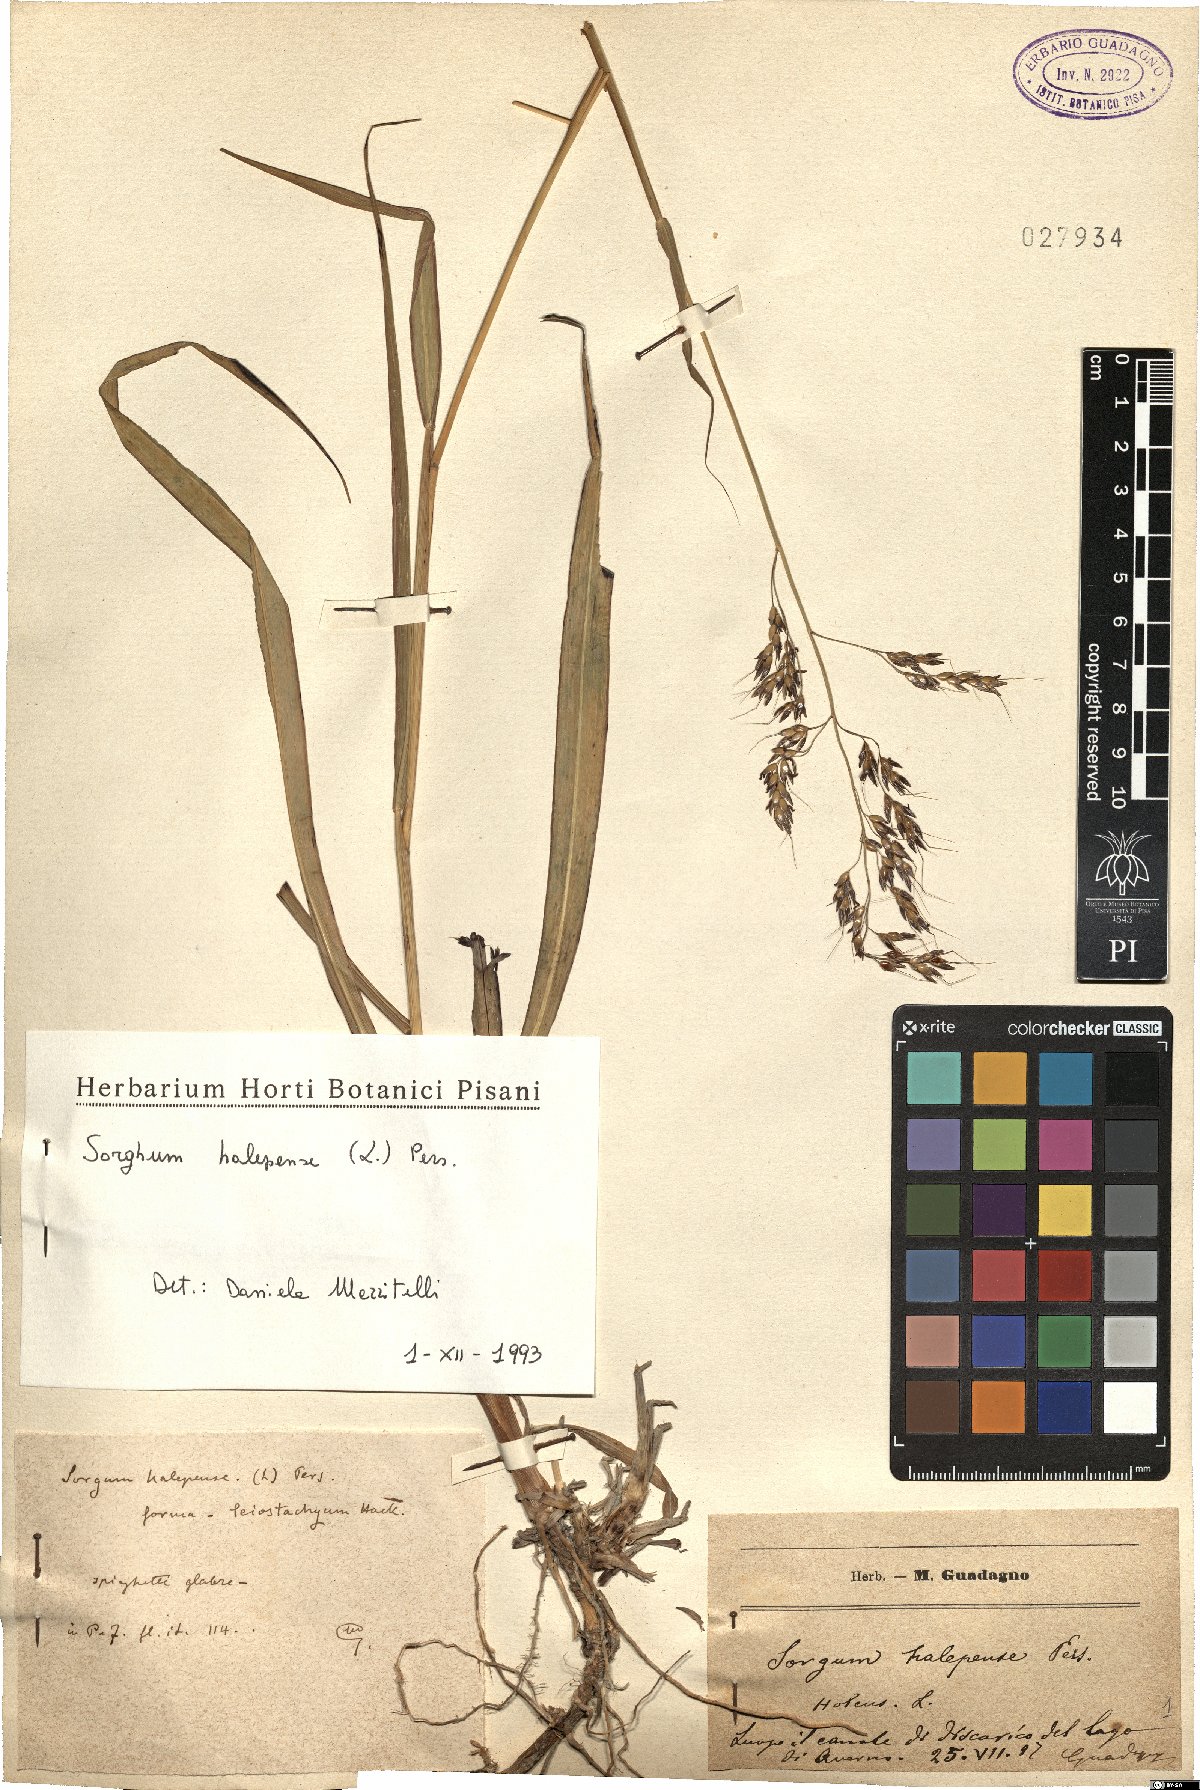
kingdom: Plantae
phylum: Tracheophyta
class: Liliopsida
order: Poales
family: Poaceae
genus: Sorghum
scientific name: Sorghum halepense
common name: Johnson-grass
